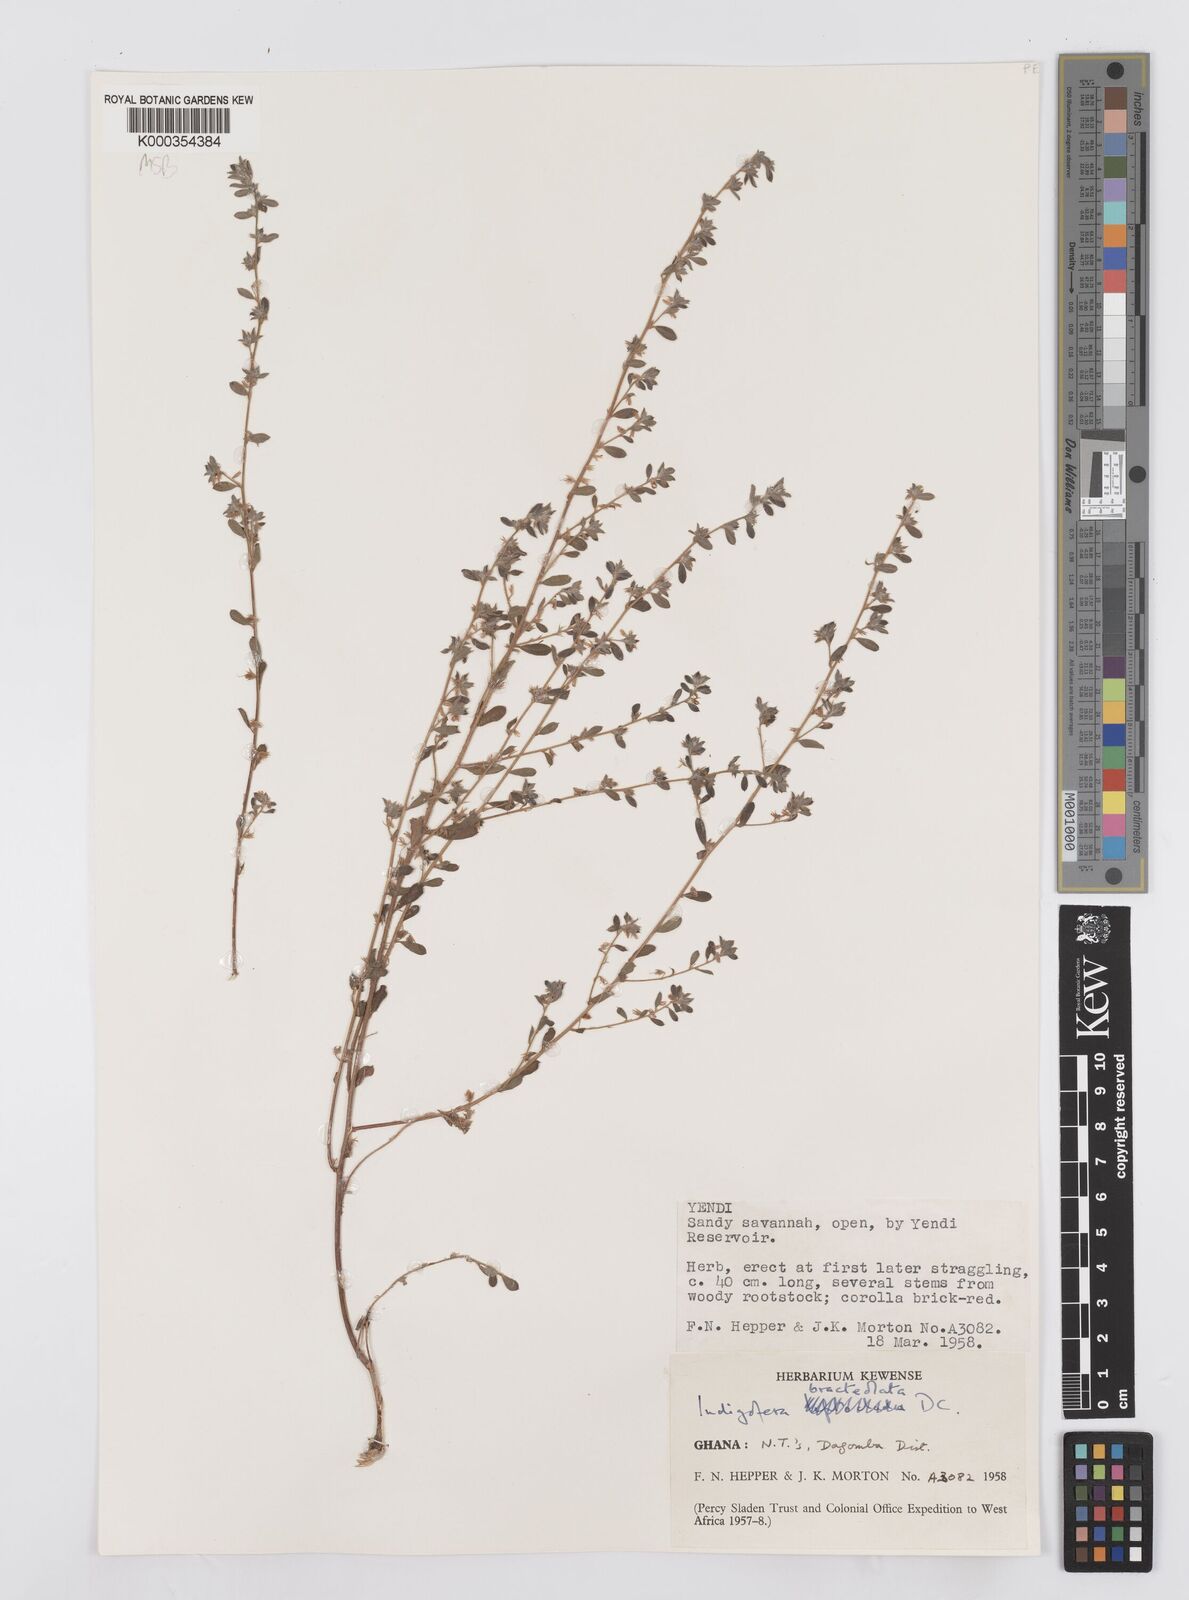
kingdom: Plantae
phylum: Tracheophyta
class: Magnoliopsida
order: Fabales
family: Fabaceae
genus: Indigofera
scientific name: Indigofera bracteolata
